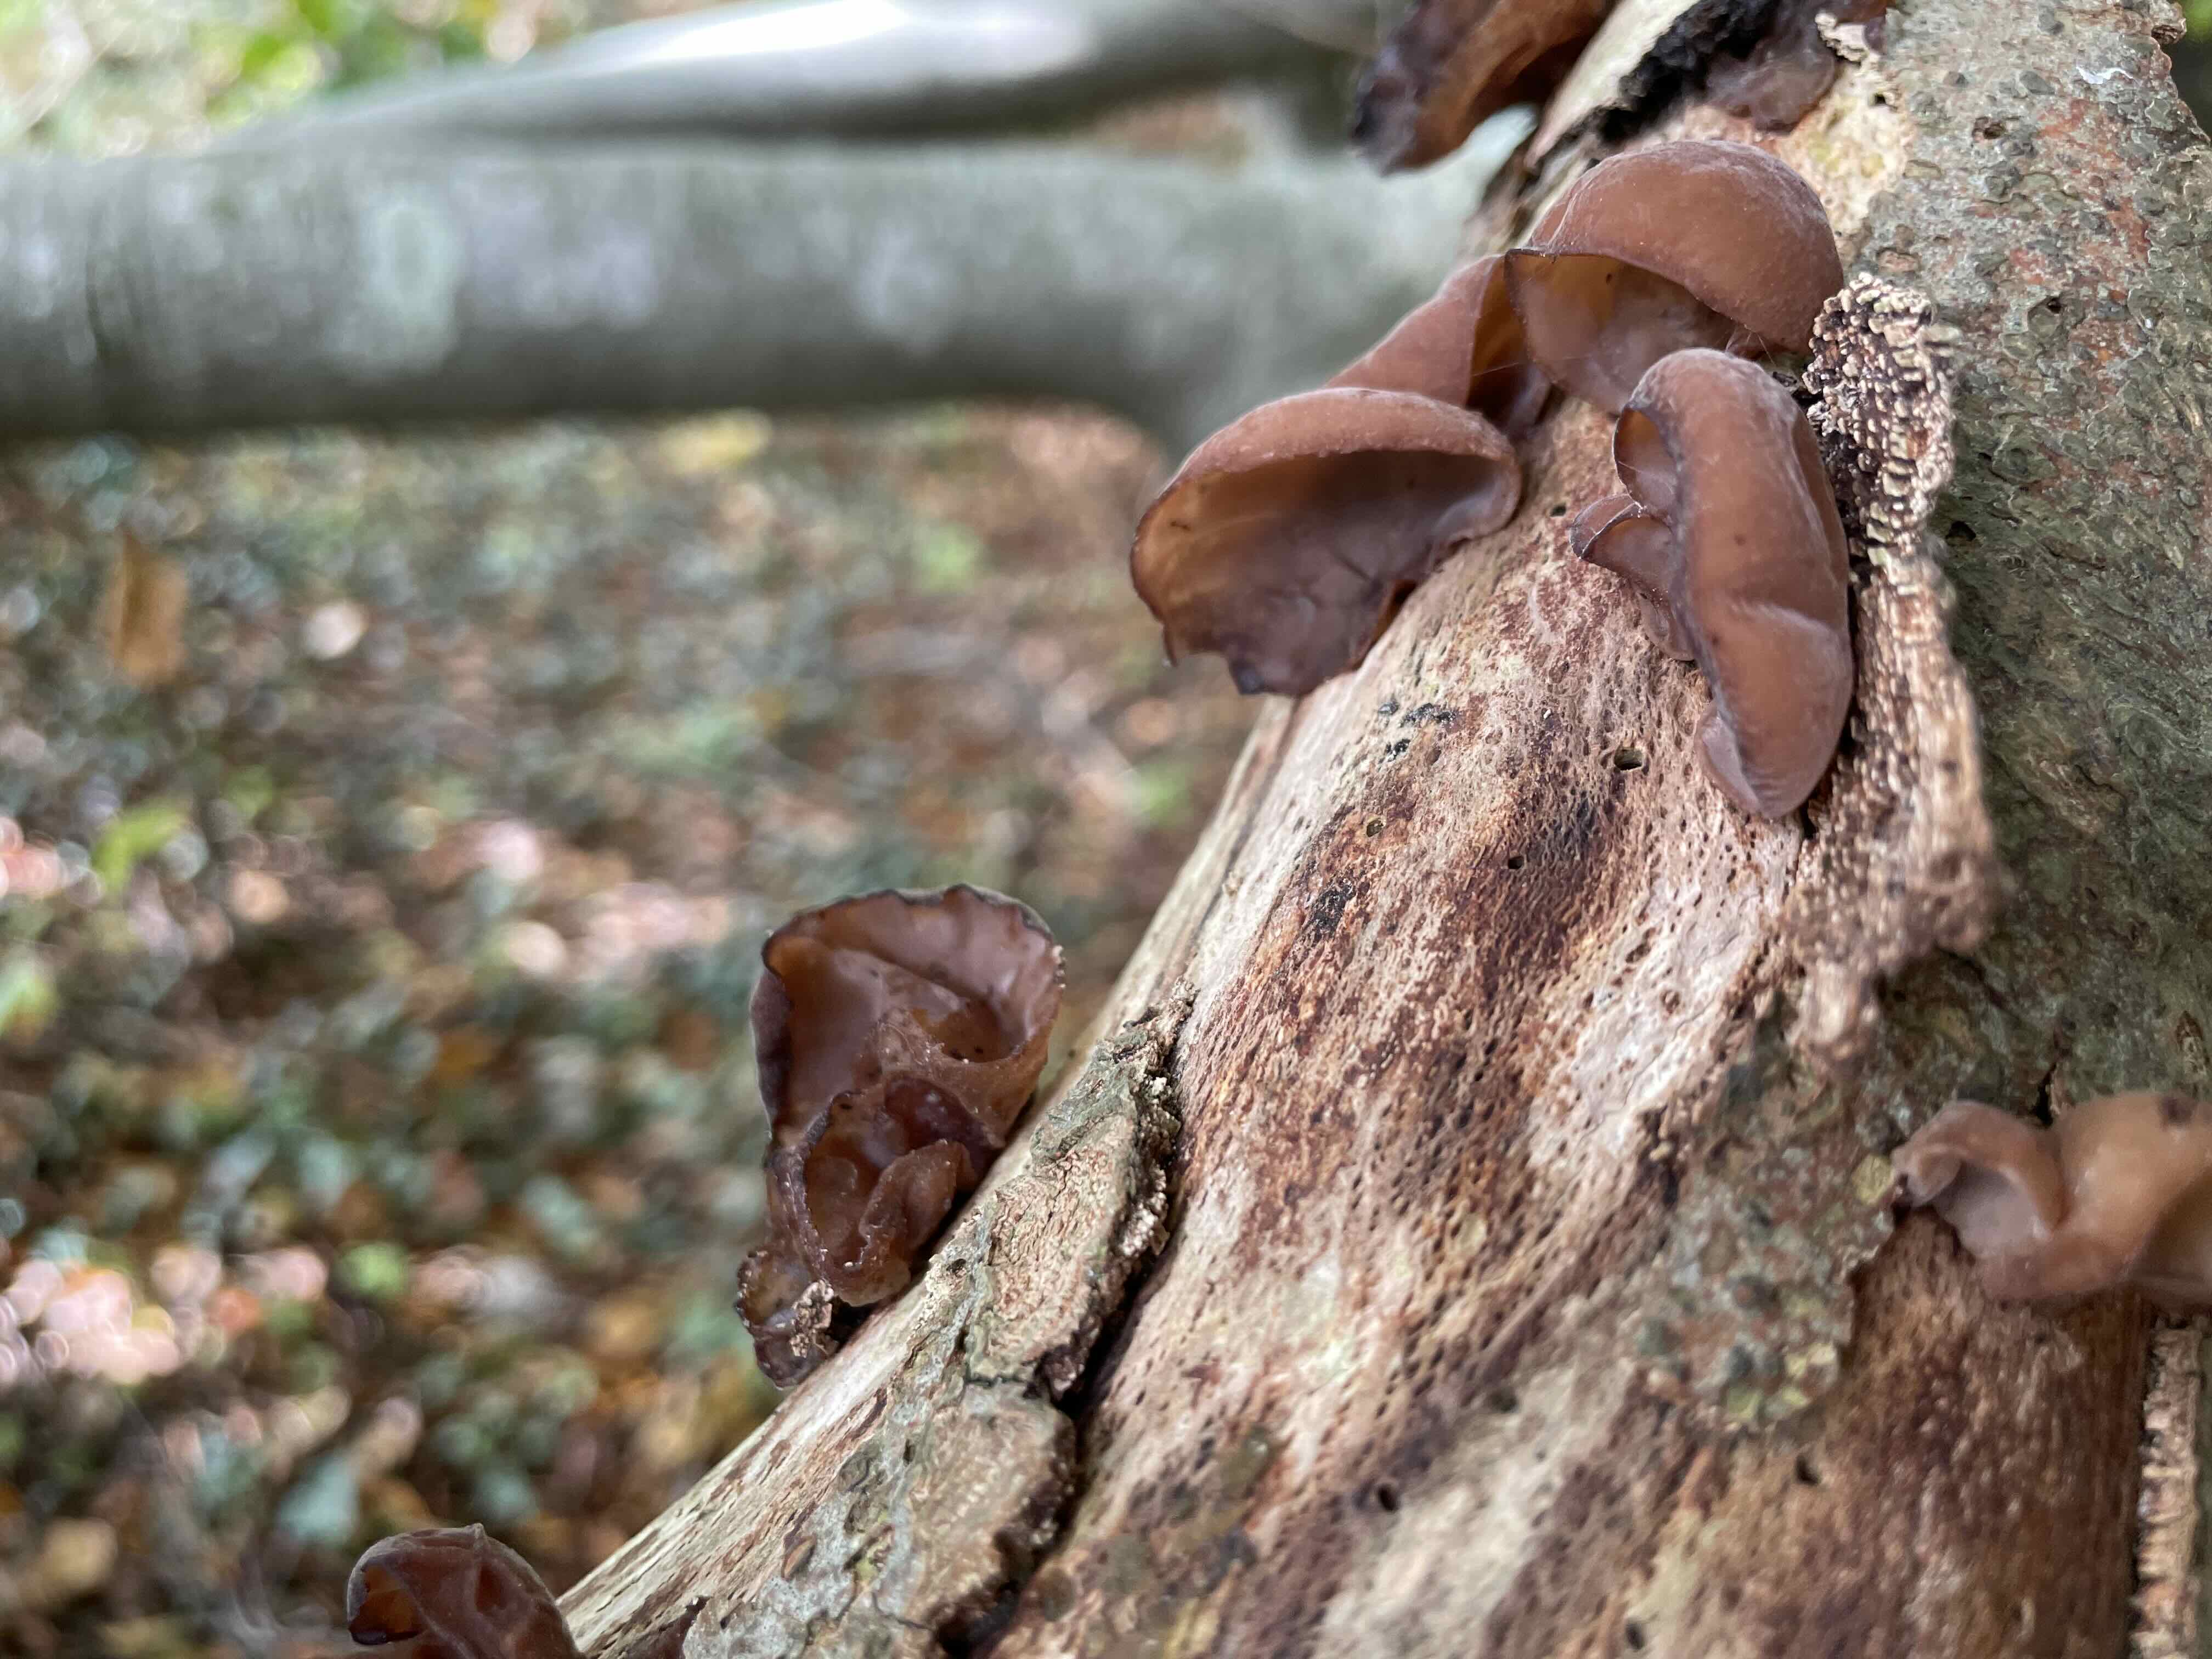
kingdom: Fungi
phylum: Basidiomycota
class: Agaricomycetes
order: Auriculariales
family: Auriculariaceae
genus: Auricularia
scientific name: Auricularia auricula-judae
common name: almindelig judasøre
